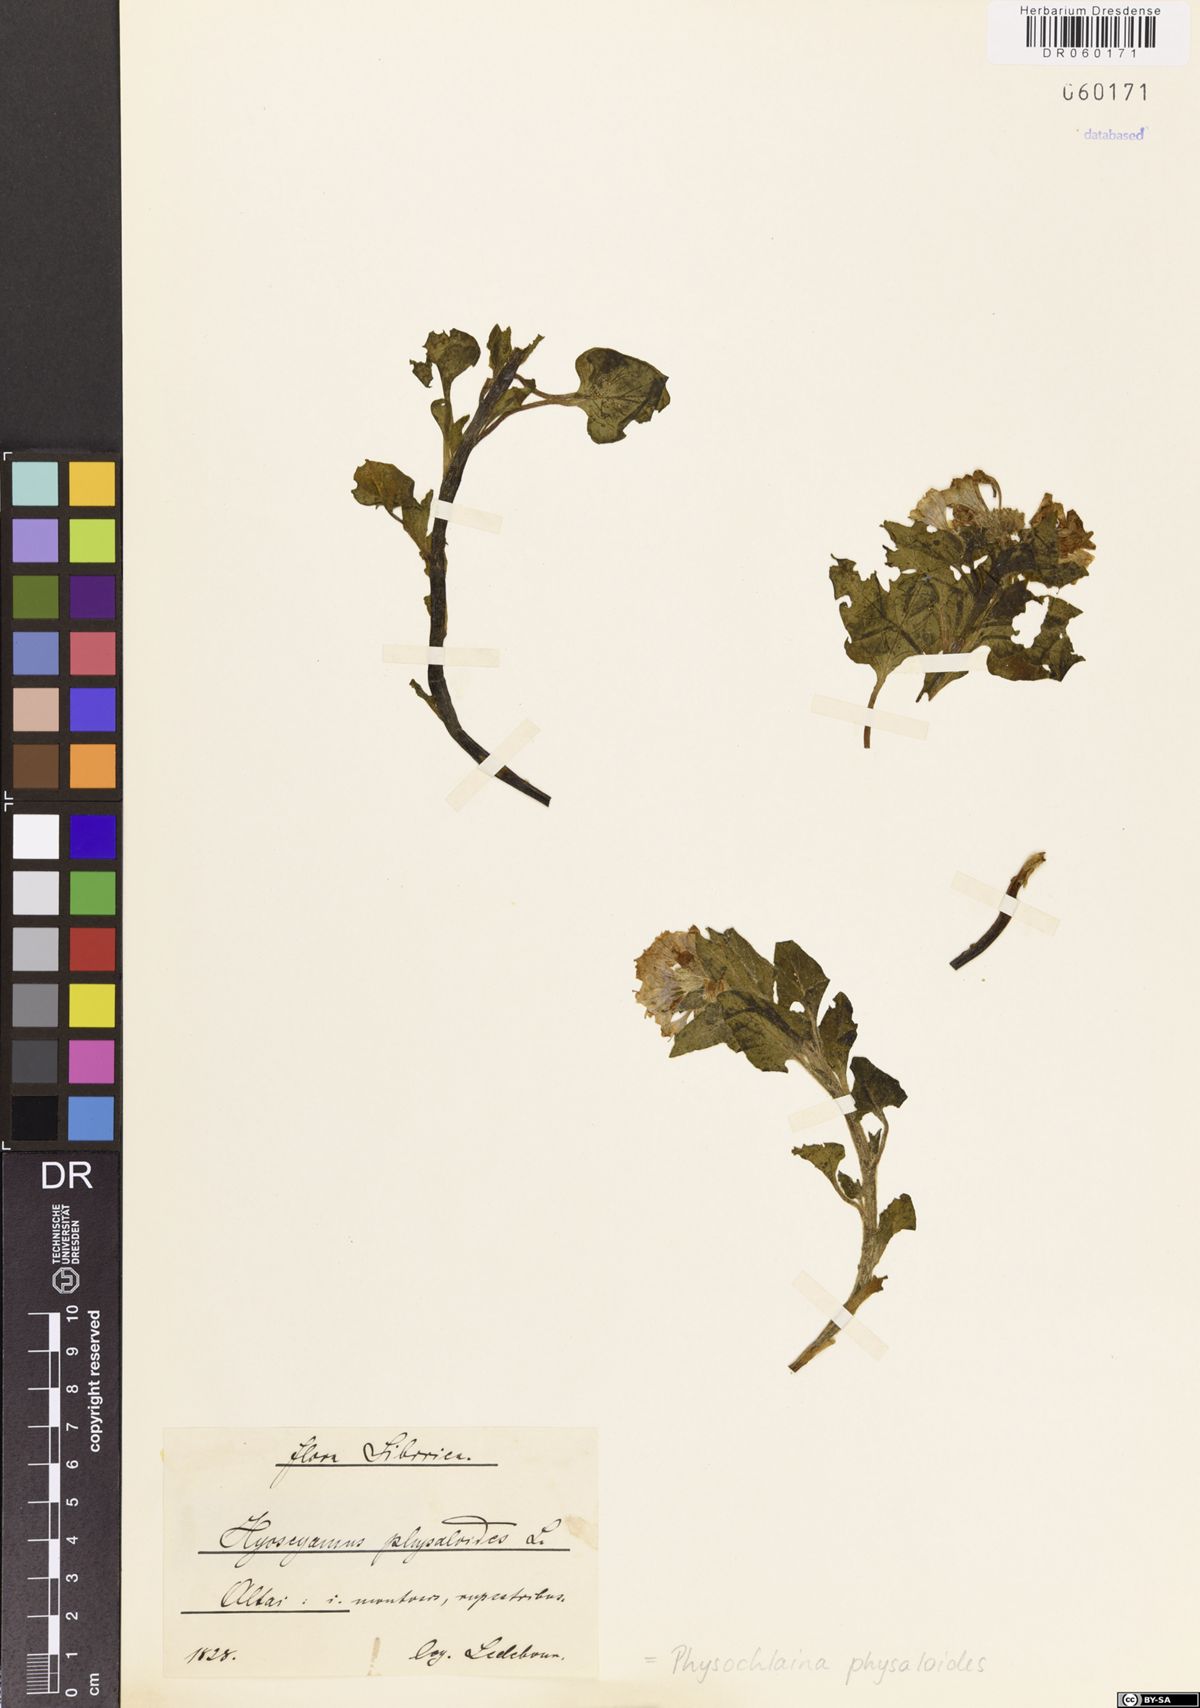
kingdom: Plantae
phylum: Tracheophyta
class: Magnoliopsida
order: Solanales
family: Solanaceae
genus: Physochlaina
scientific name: Physochlaina physaloides
